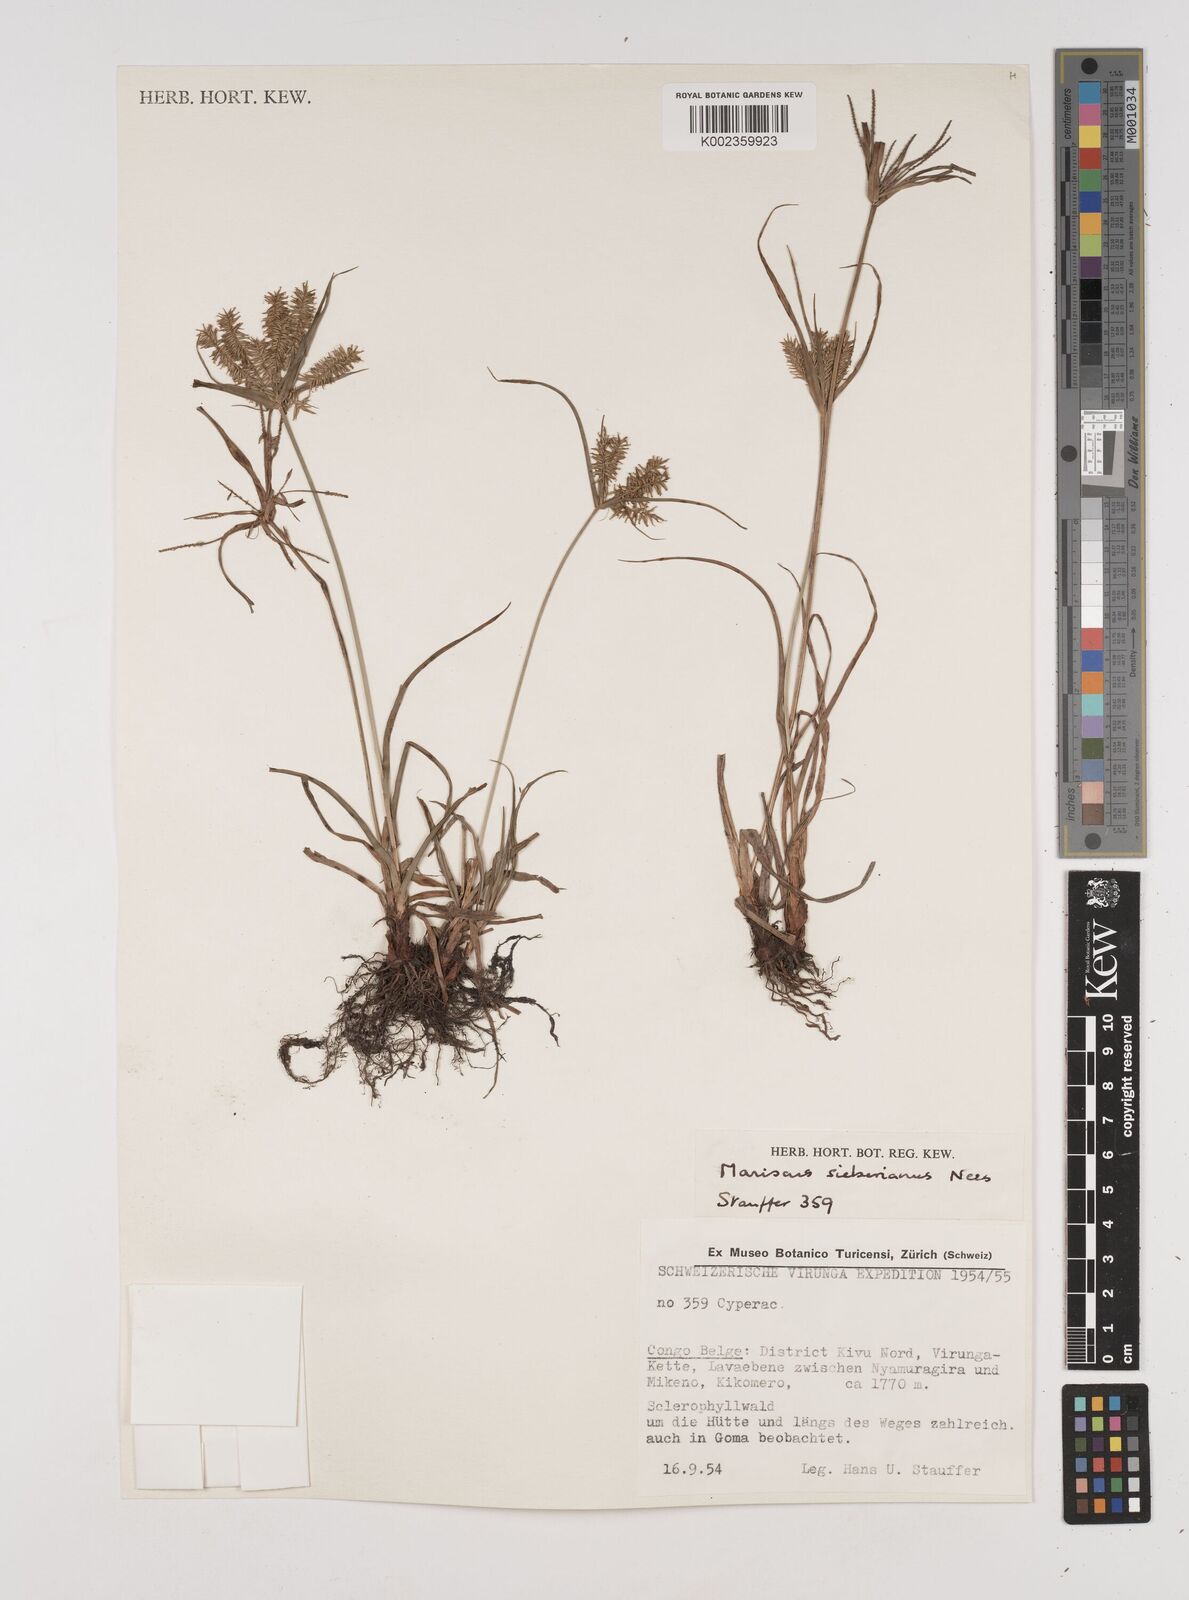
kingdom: Plantae
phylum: Tracheophyta
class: Liliopsida
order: Poales
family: Cyperaceae
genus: Cyperus
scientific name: Cyperus cyperoides
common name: Pacific island flat sedge
